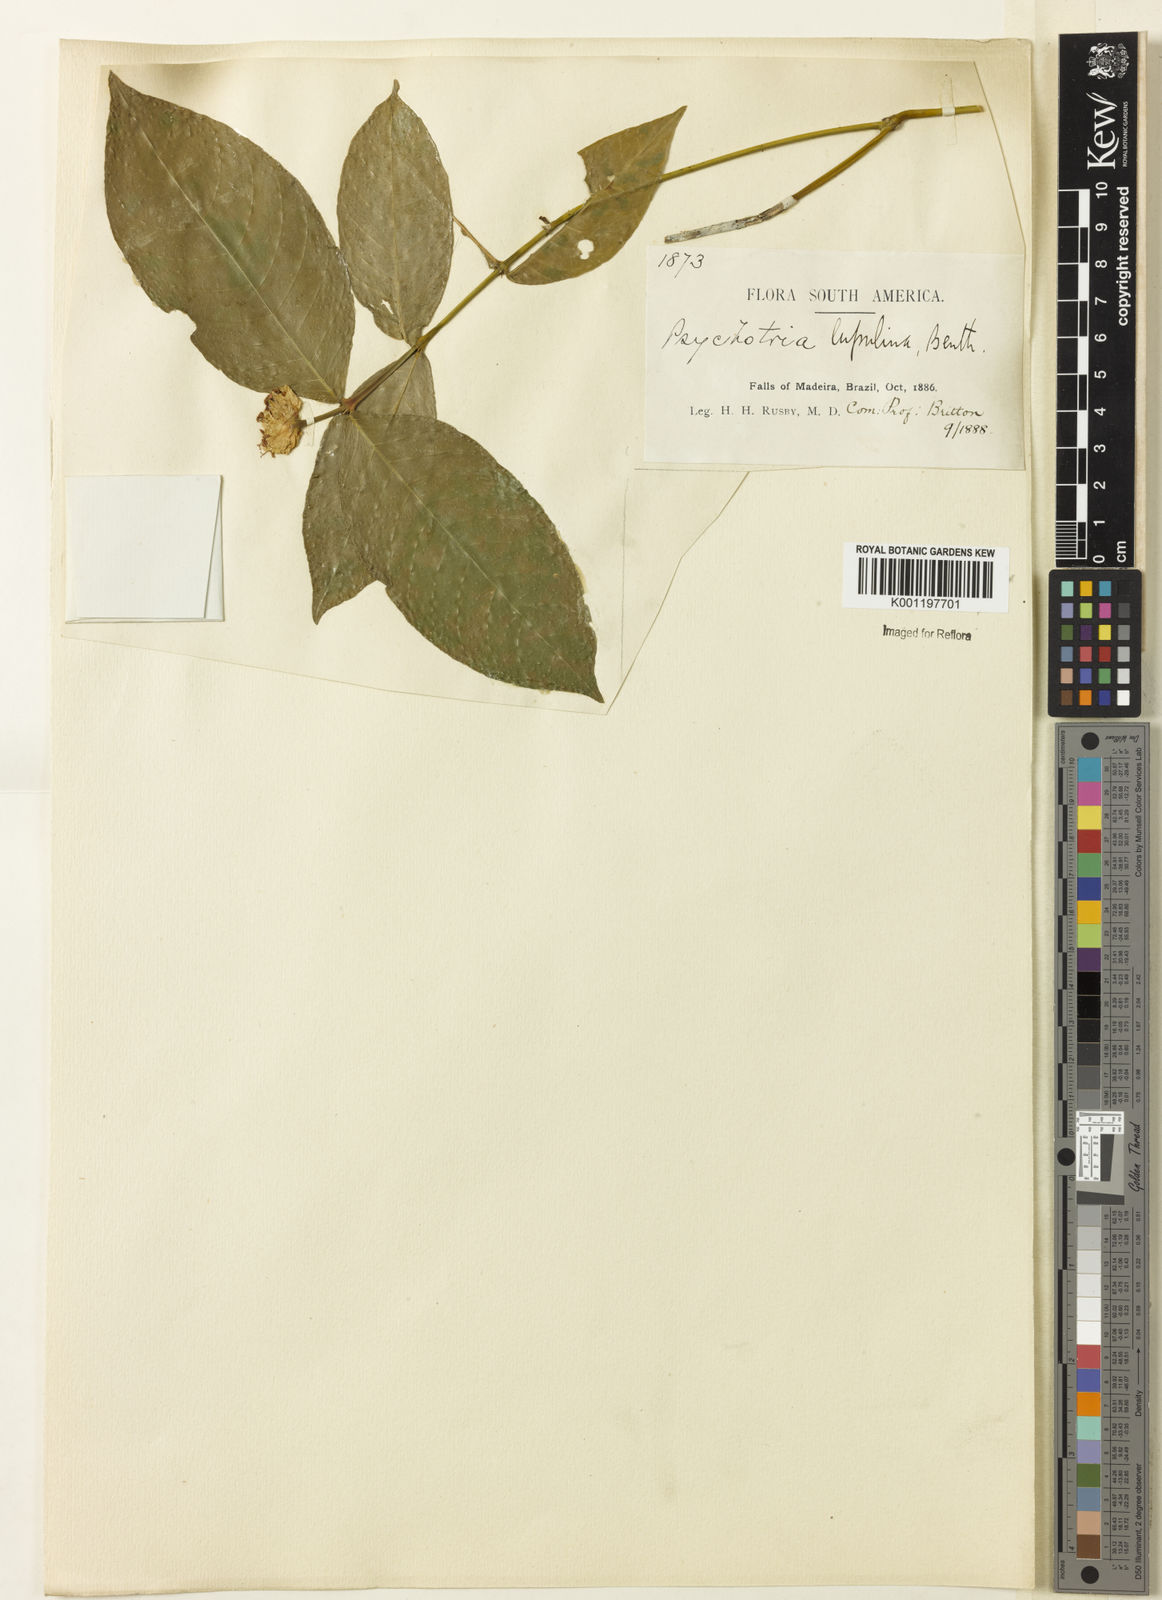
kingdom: Plantae
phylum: Tracheophyta
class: Magnoliopsida
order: Gentianales
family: Rubiaceae
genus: Palicourea
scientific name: Palicourea justiciifolia
